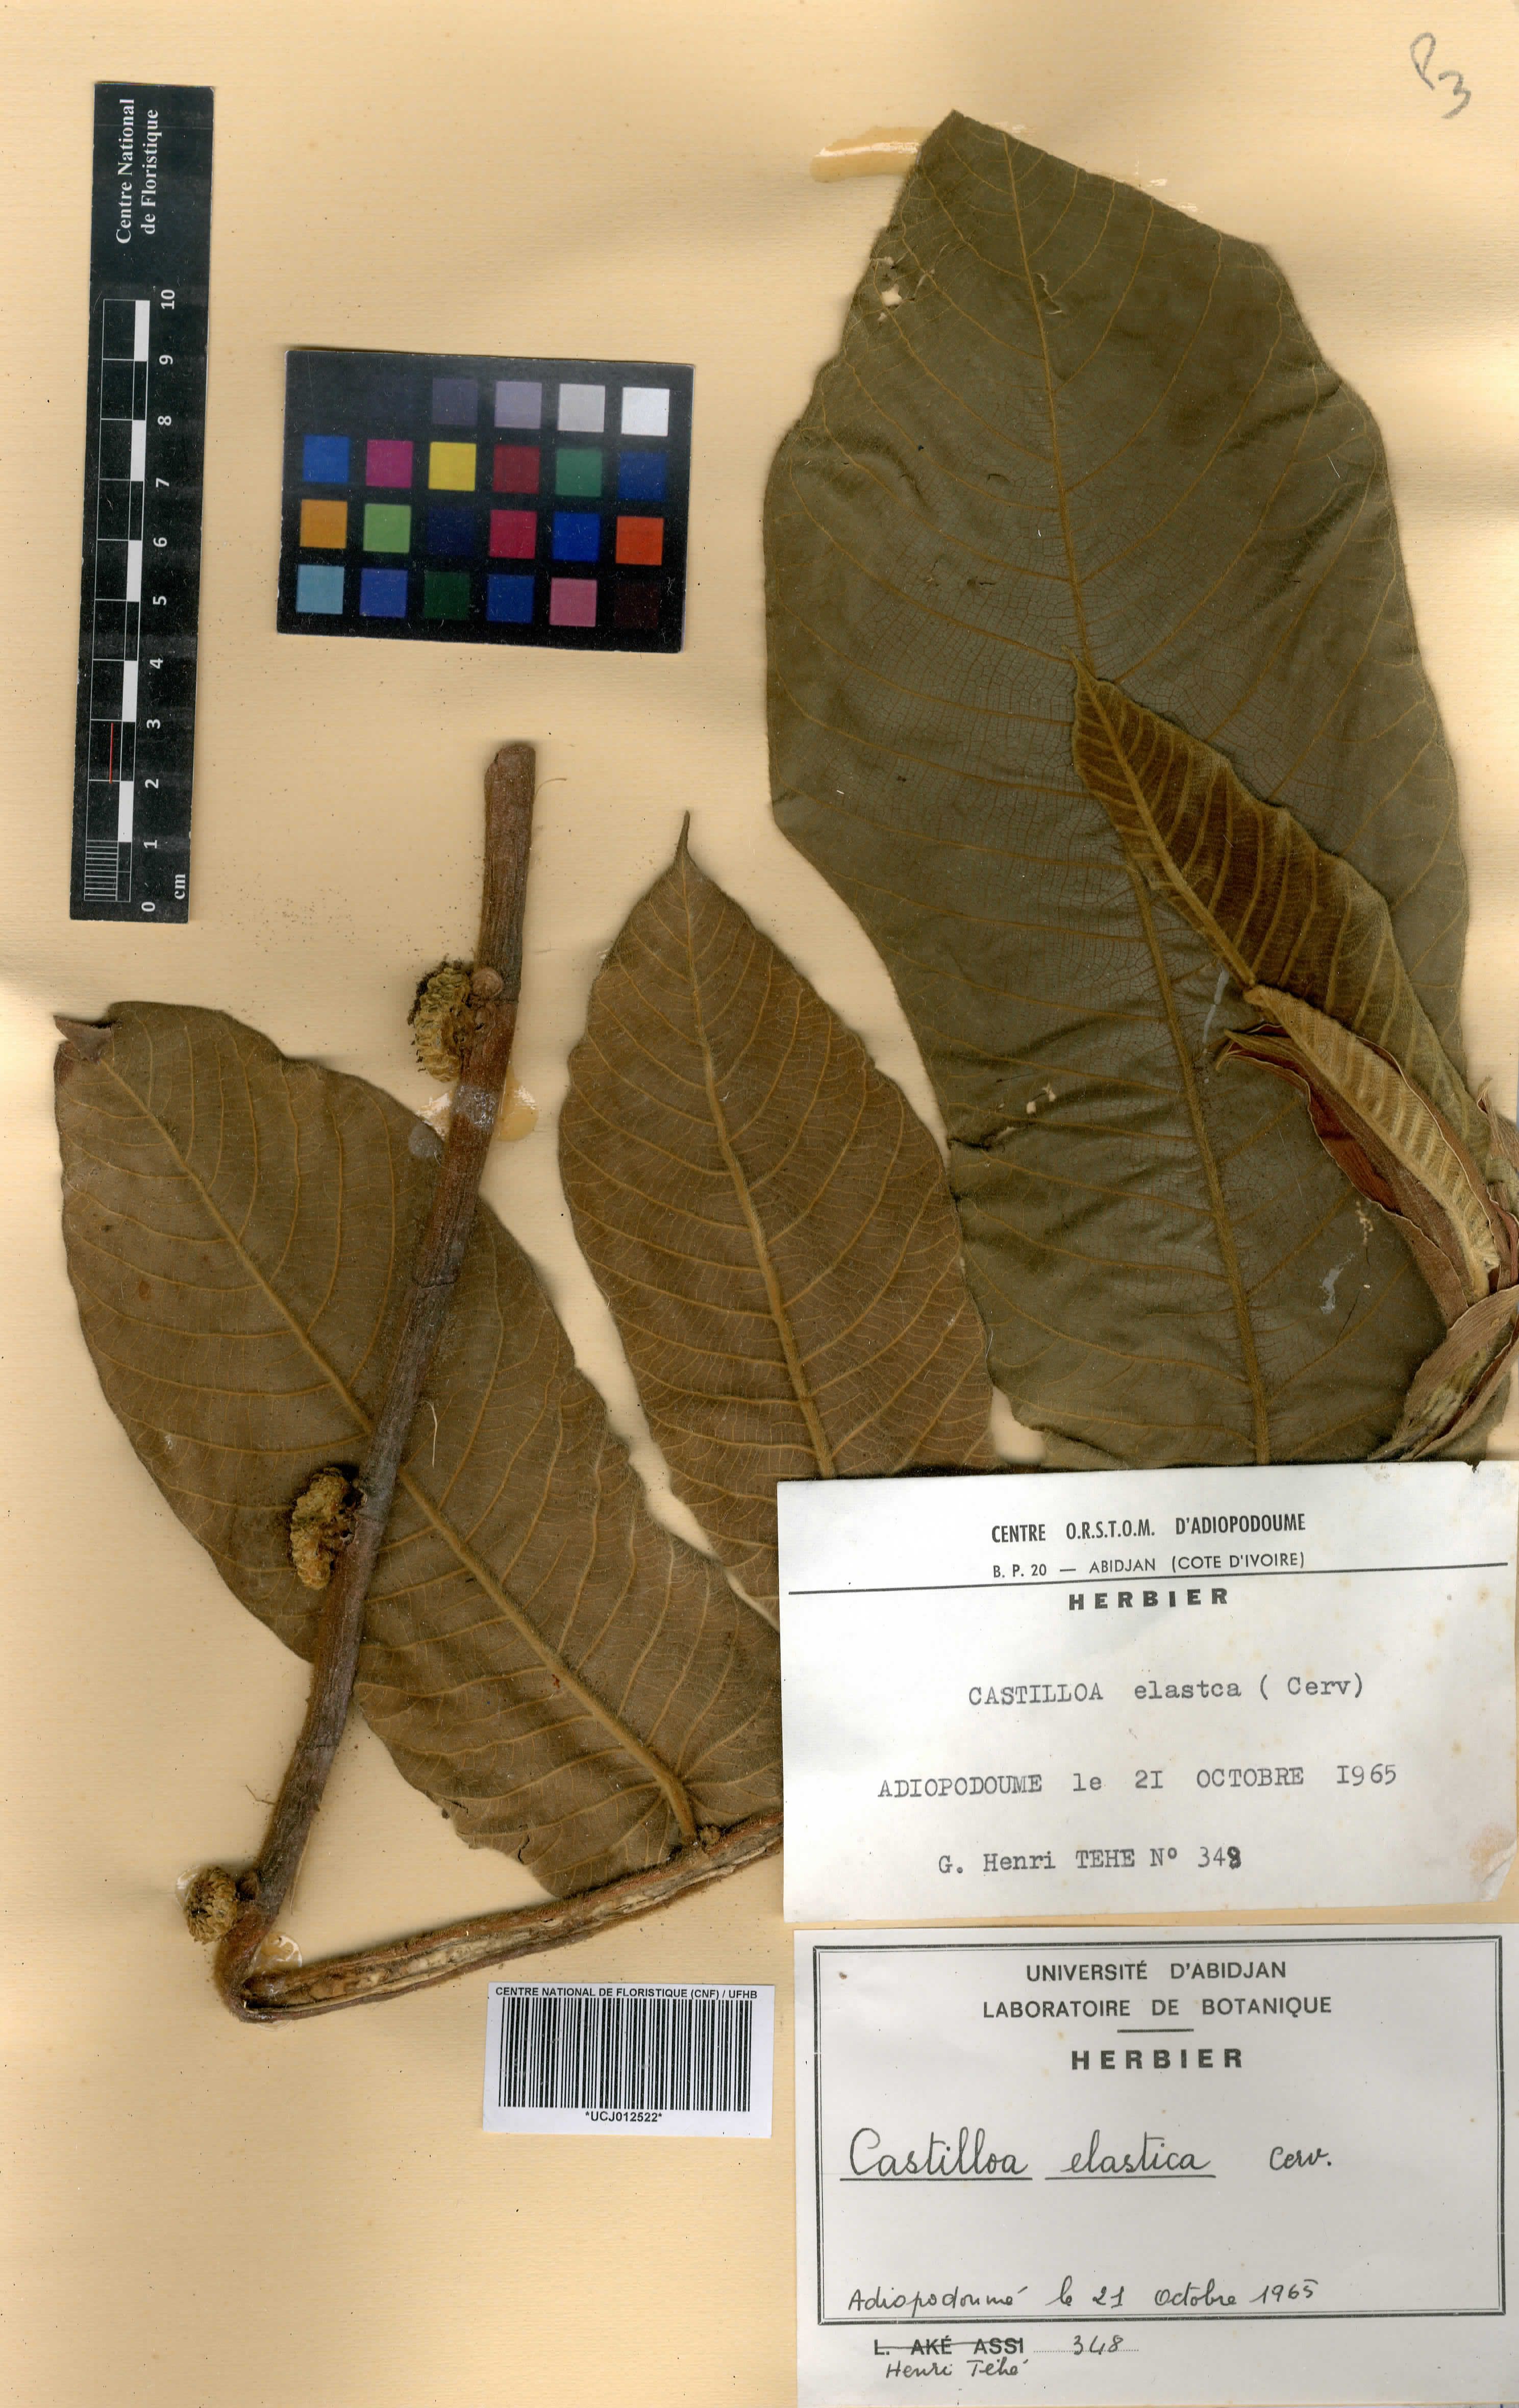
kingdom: Plantae
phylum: Tracheophyta
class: Magnoliopsida
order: Rosales
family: Moraceae
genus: Castilla
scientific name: Castilla elastica
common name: Castilla rubber
